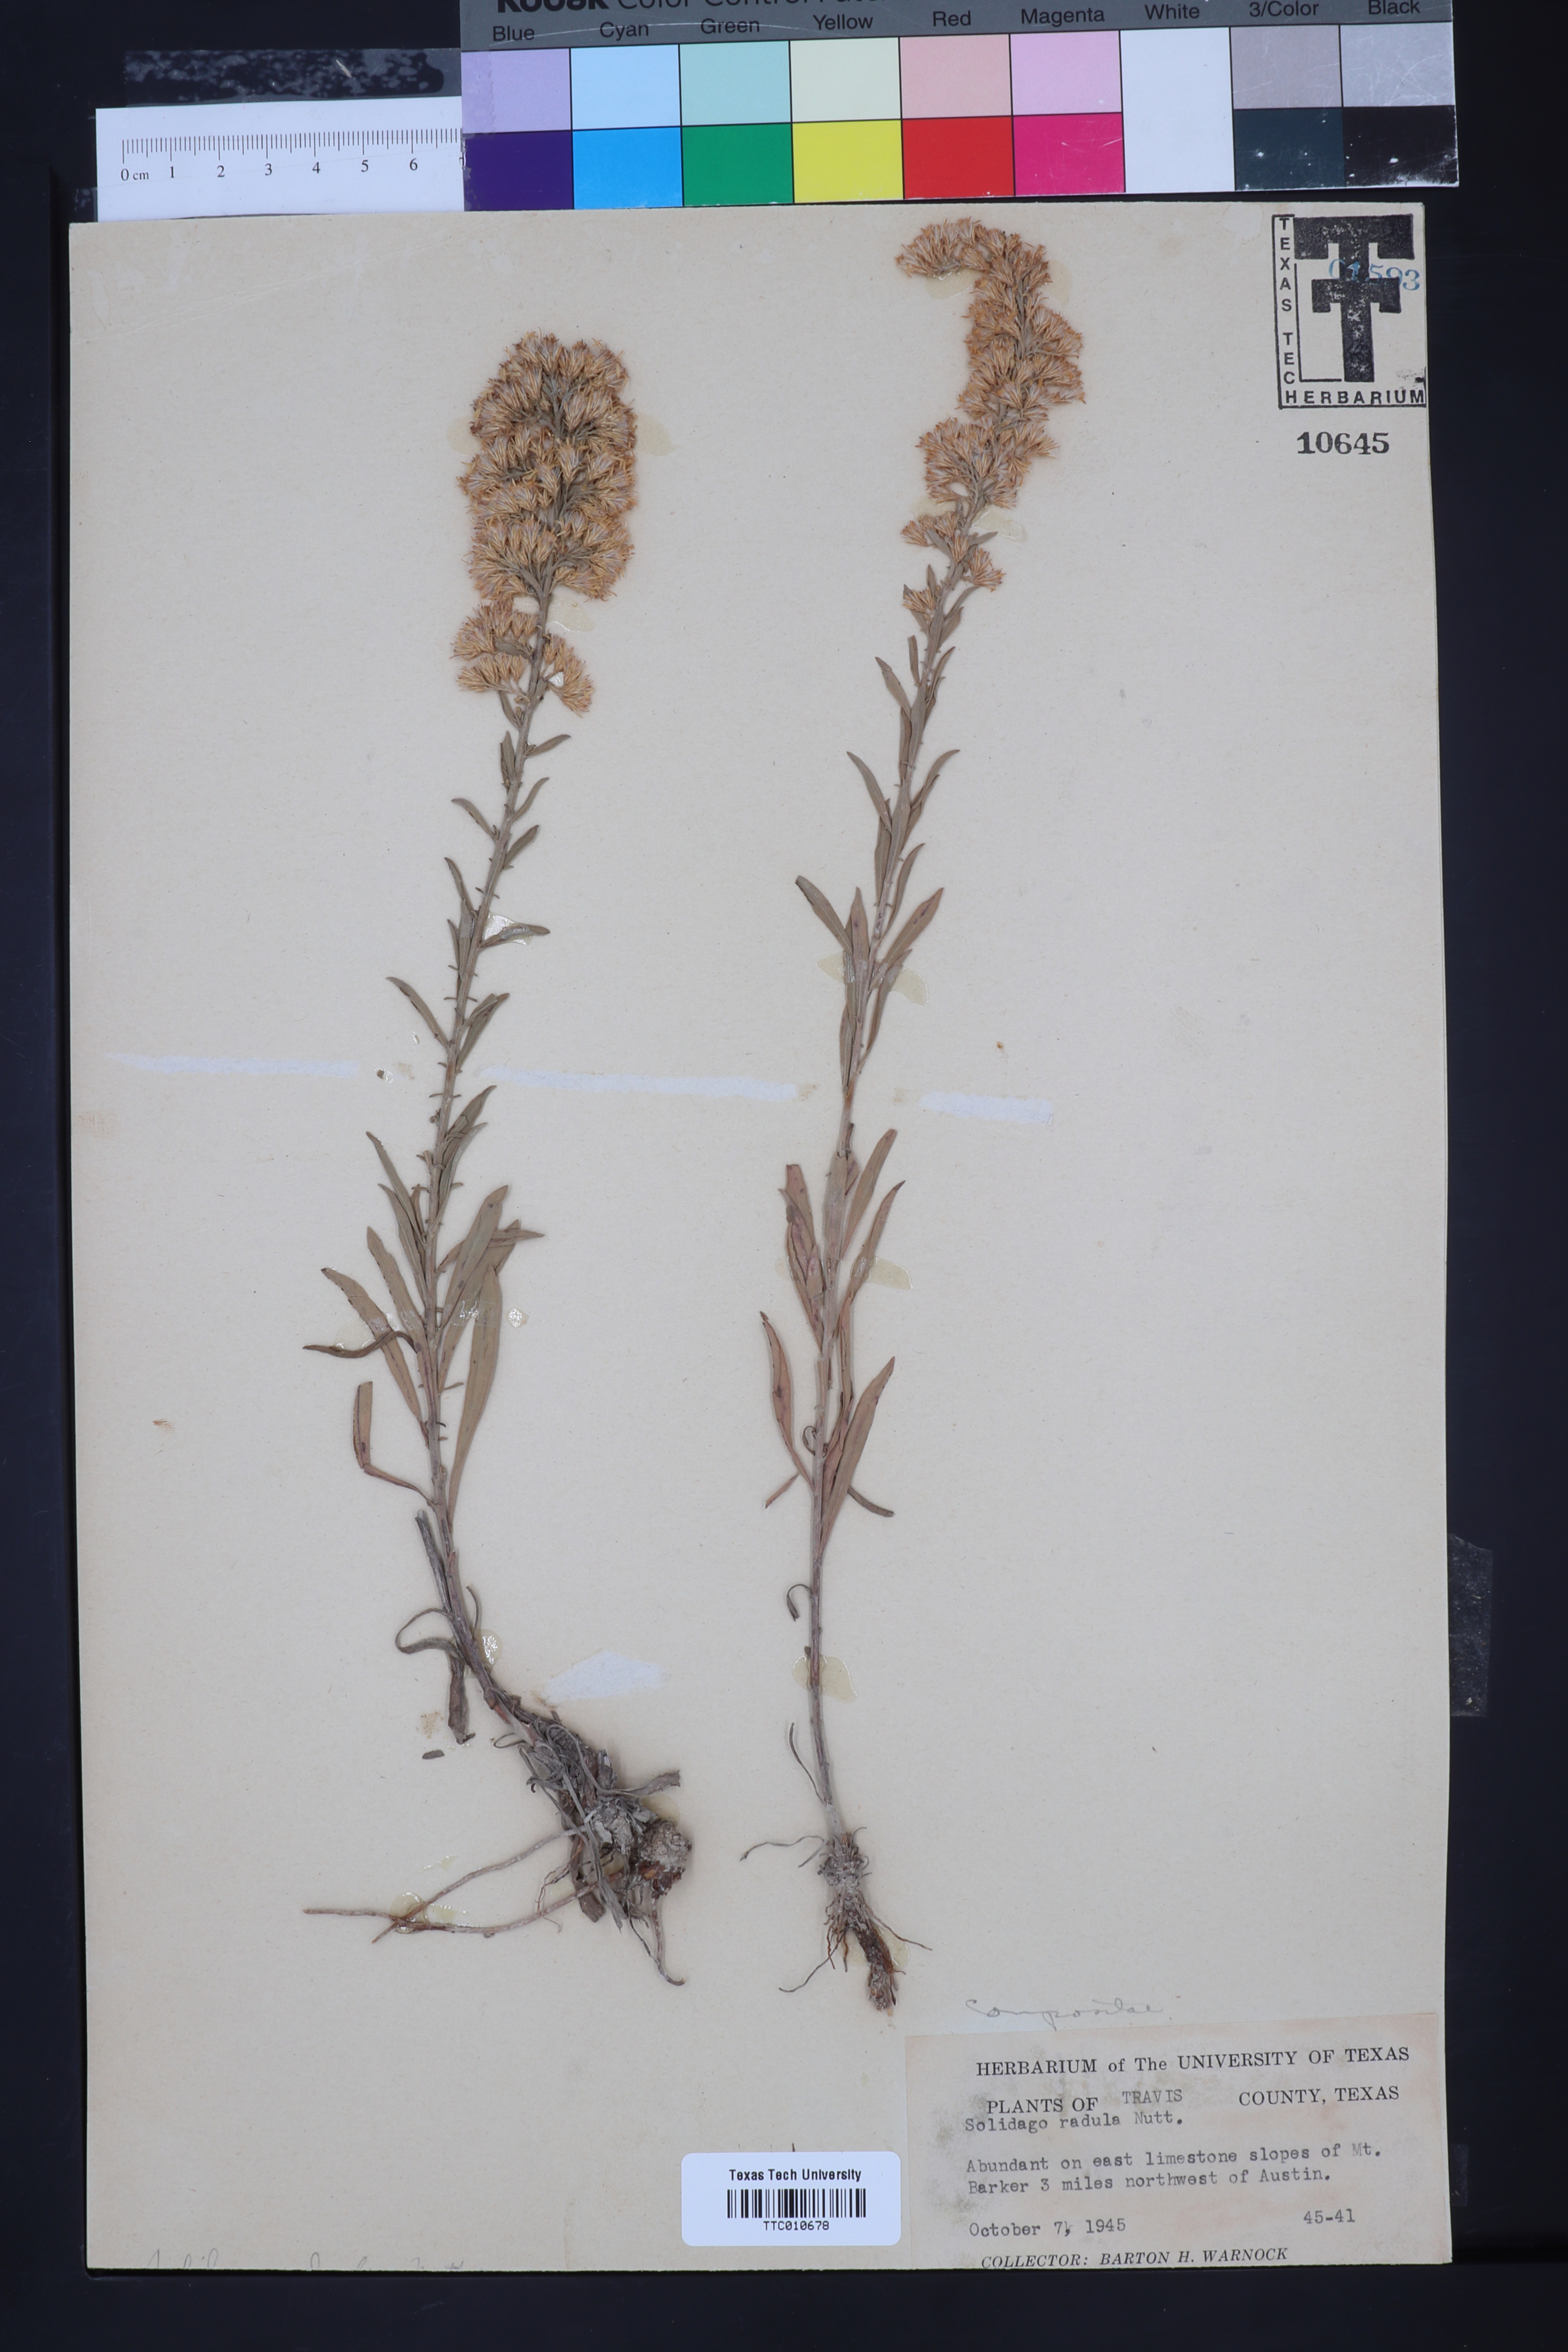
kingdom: Plantae
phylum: Tracheophyta
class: Magnoliopsida
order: Asterales
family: Asteraceae
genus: Solidago
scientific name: Solidago radula
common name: Western rough goldenrod
